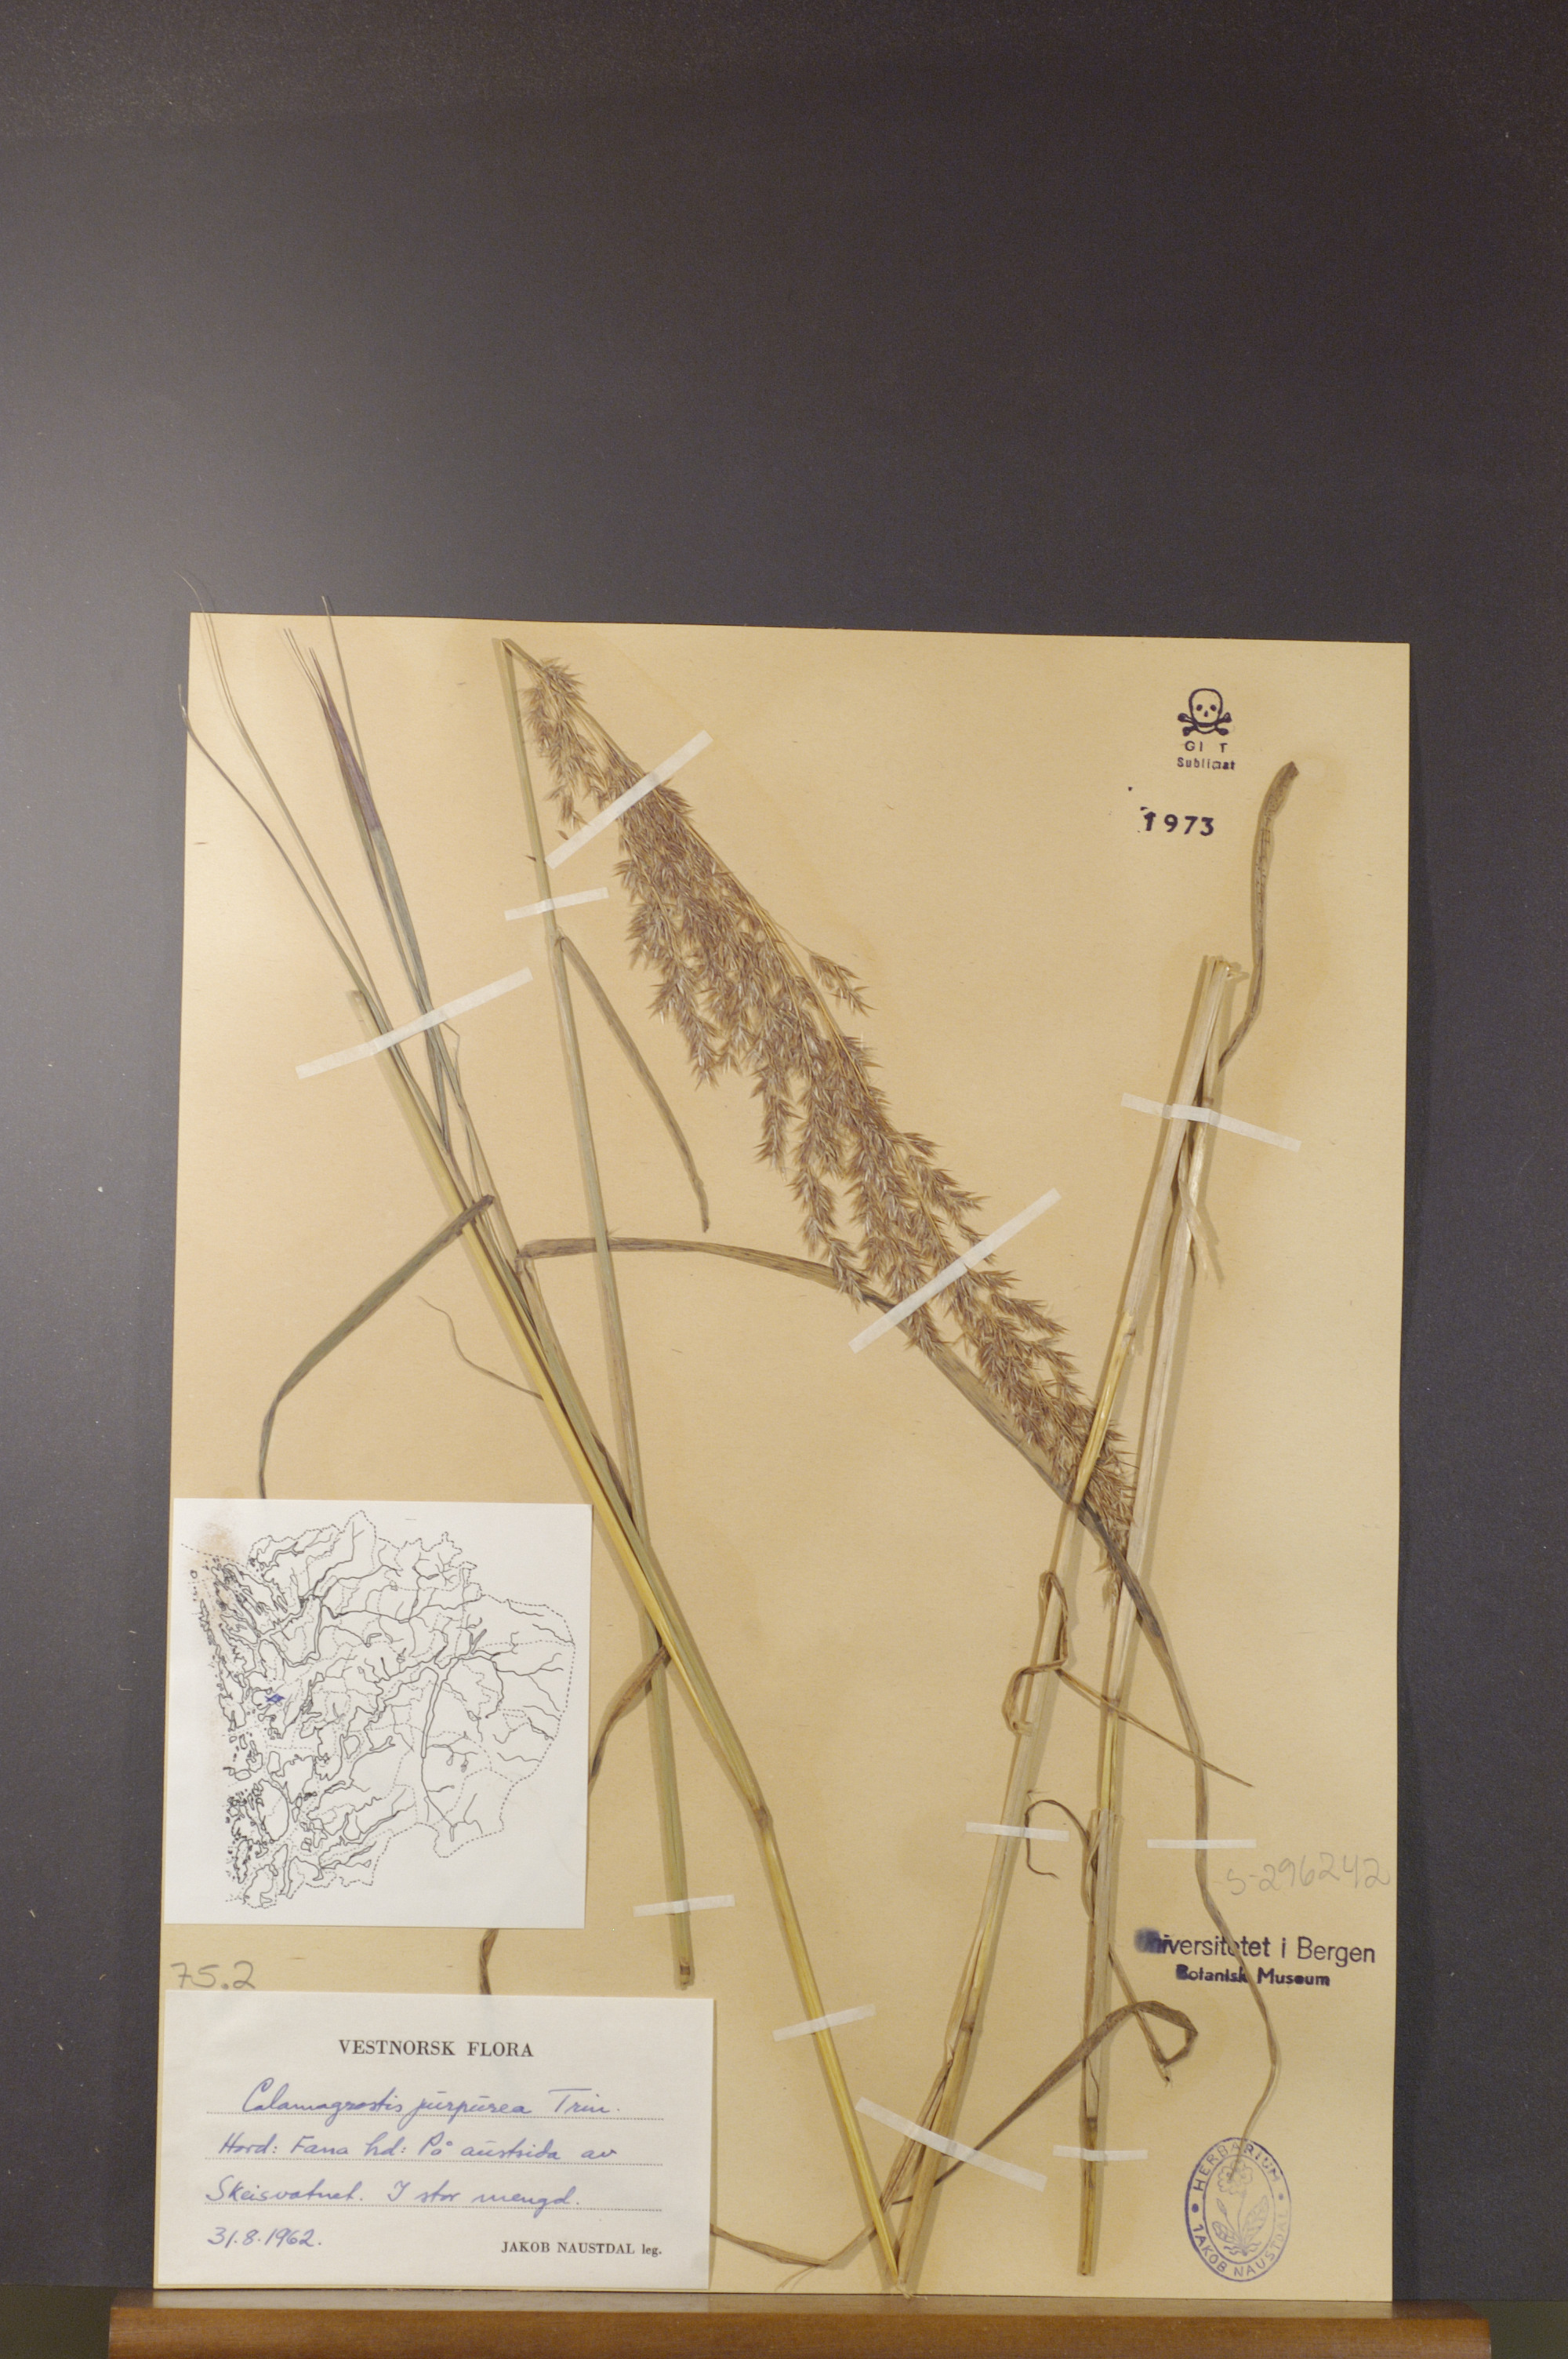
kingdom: Plantae
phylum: Tracheophyta
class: Liliopsida
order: Poales
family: Poaceae
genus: Calamagrostis
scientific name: Calamagrostis purpurea
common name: Scandinavian small-reed
